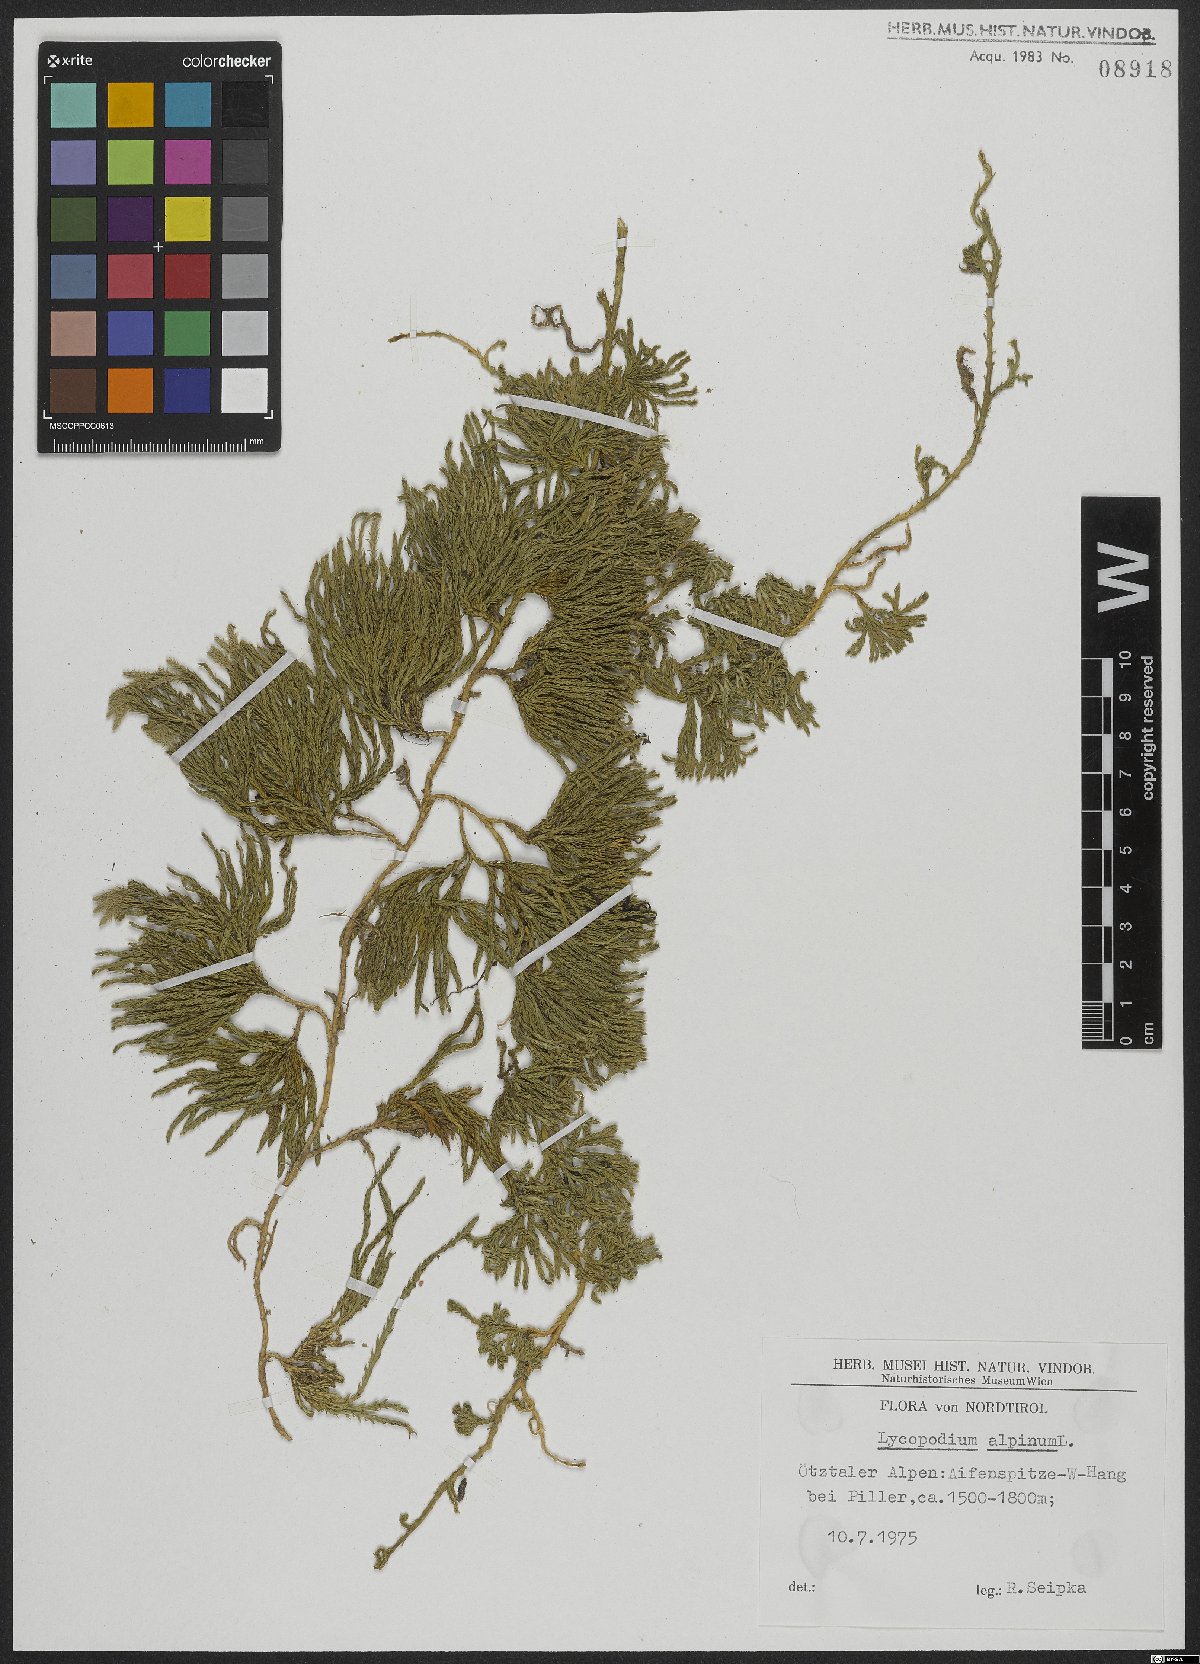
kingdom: Plantae
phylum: Tracheophyta
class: Lycopodiopsida
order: Lycopodiales
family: Lycopodiaceae
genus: Diphasiastrum
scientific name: Diphasiastrum alpinum
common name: Alpine clubmoss
